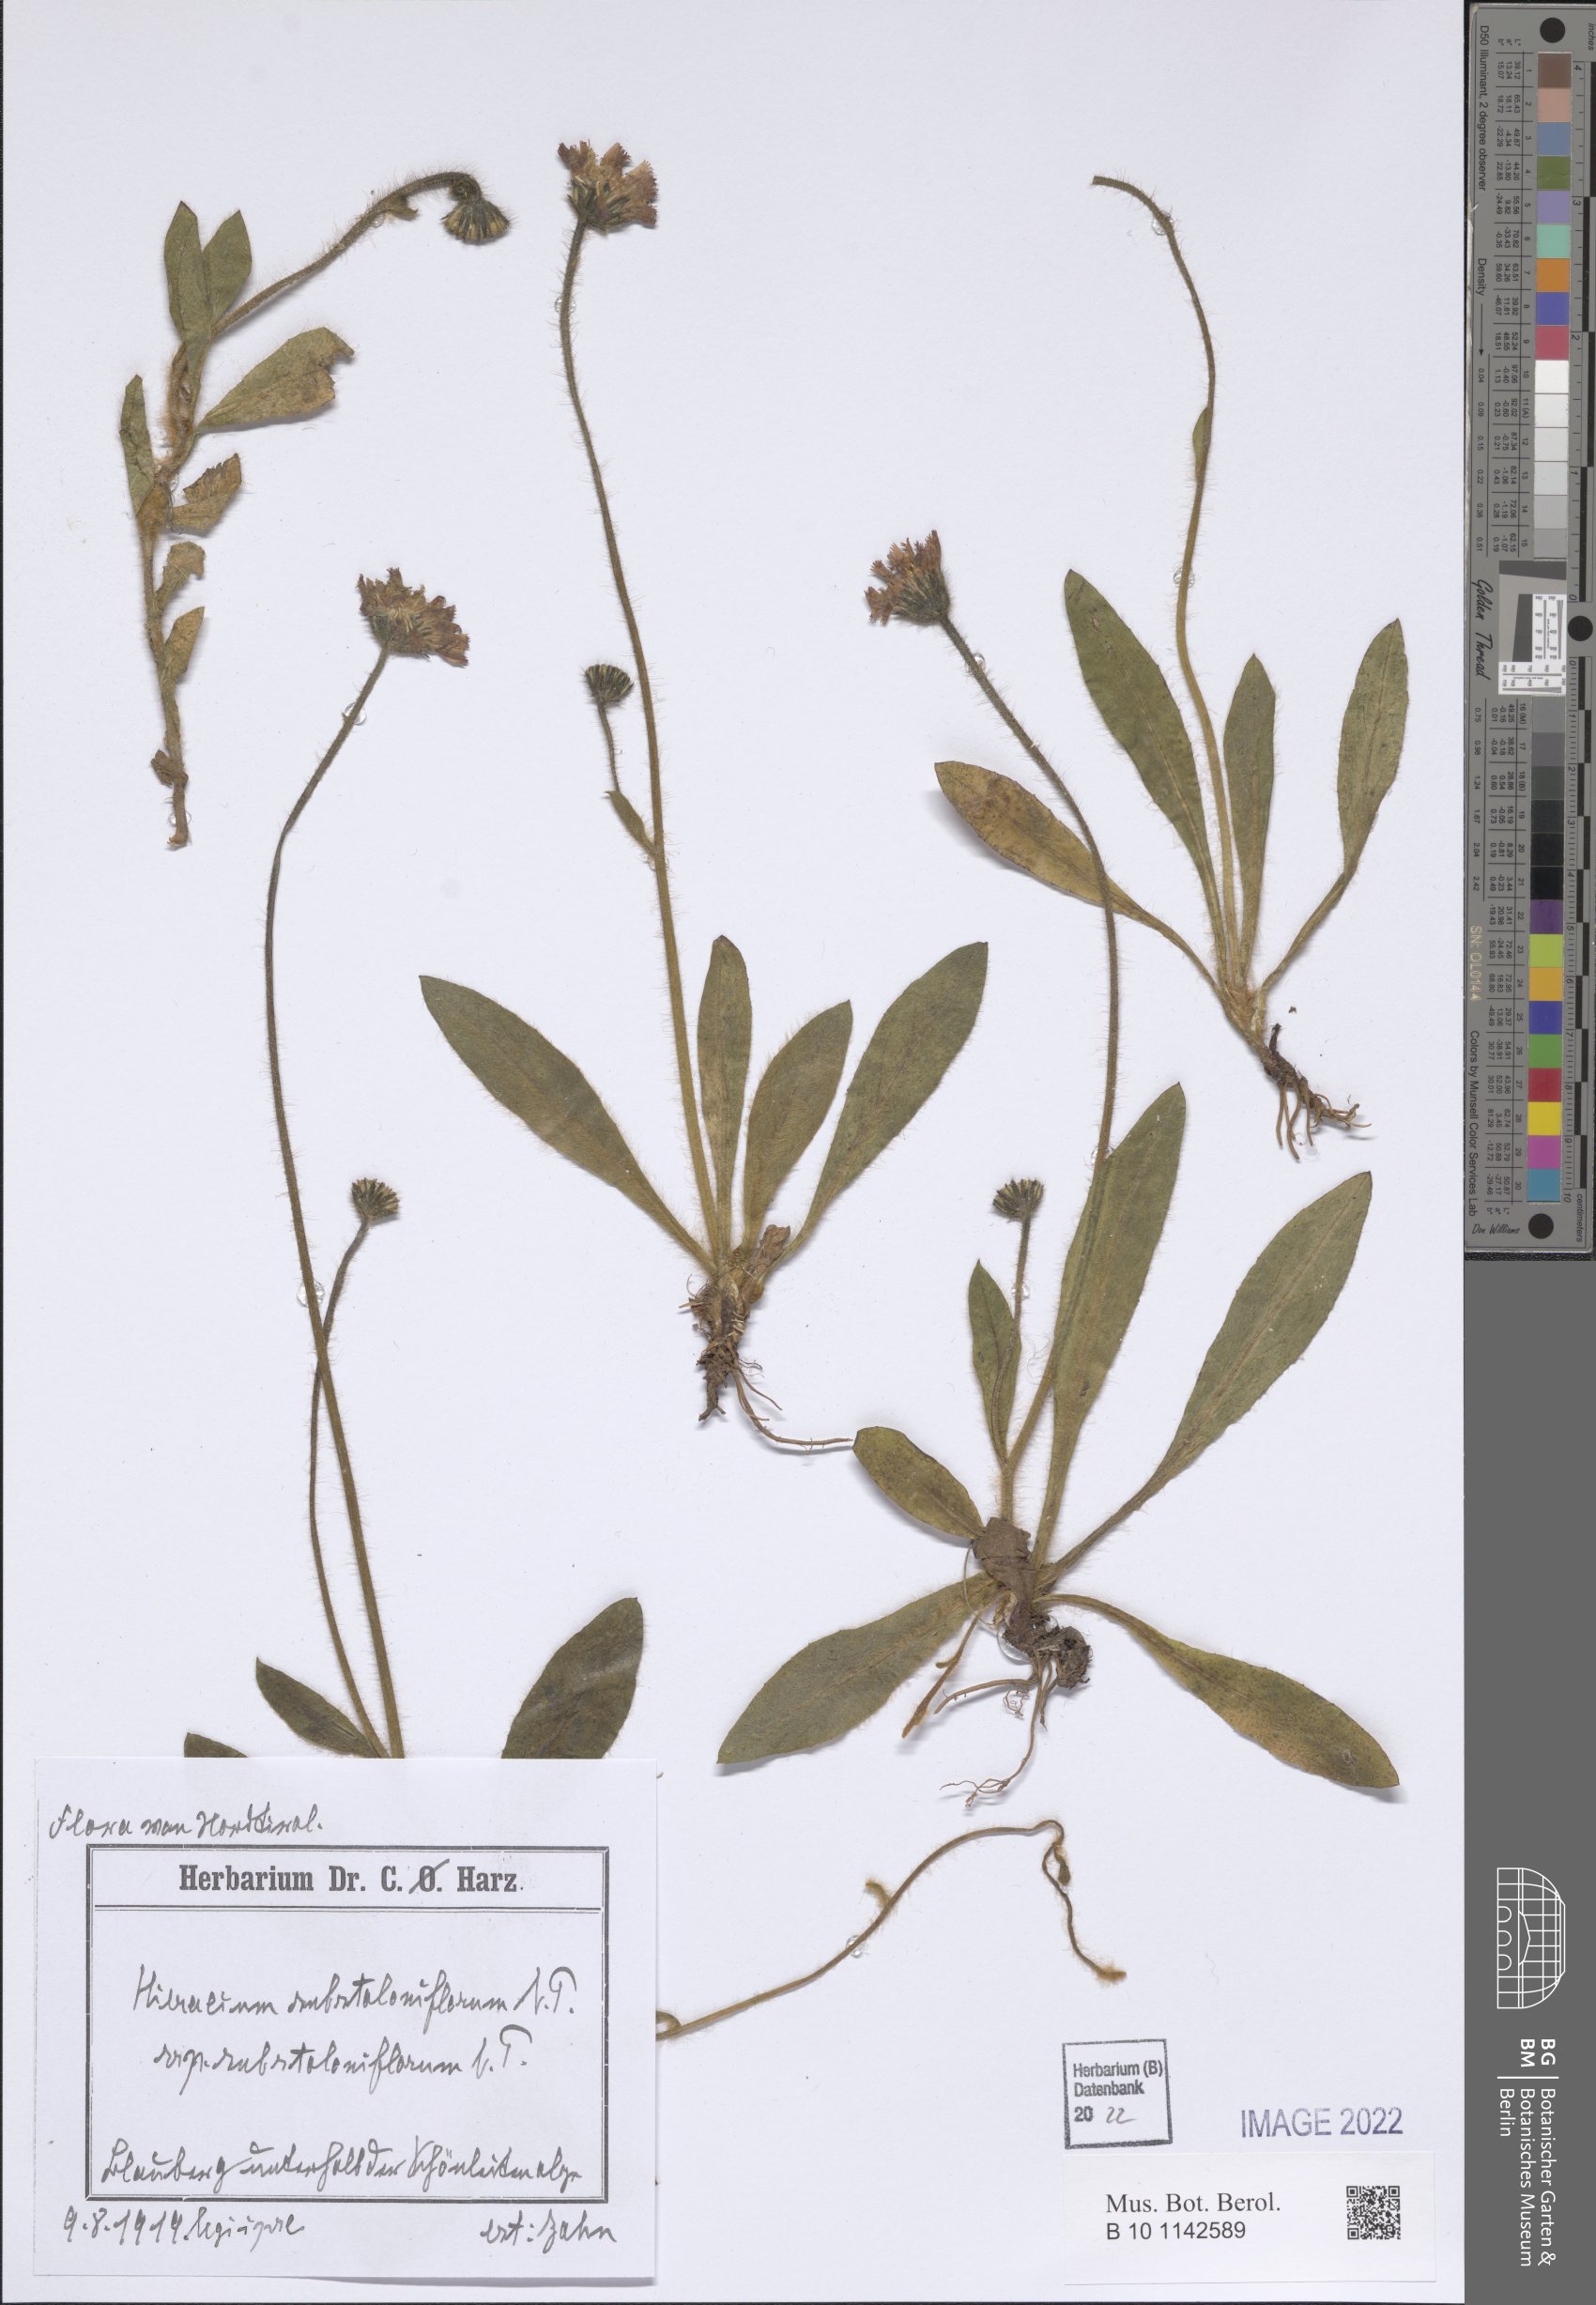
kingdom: Plantae
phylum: Tracheophyta
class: Magnoliopsida
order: Asterales
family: Asteraceae
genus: Pilosella
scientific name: Pilosella substoloniflora
